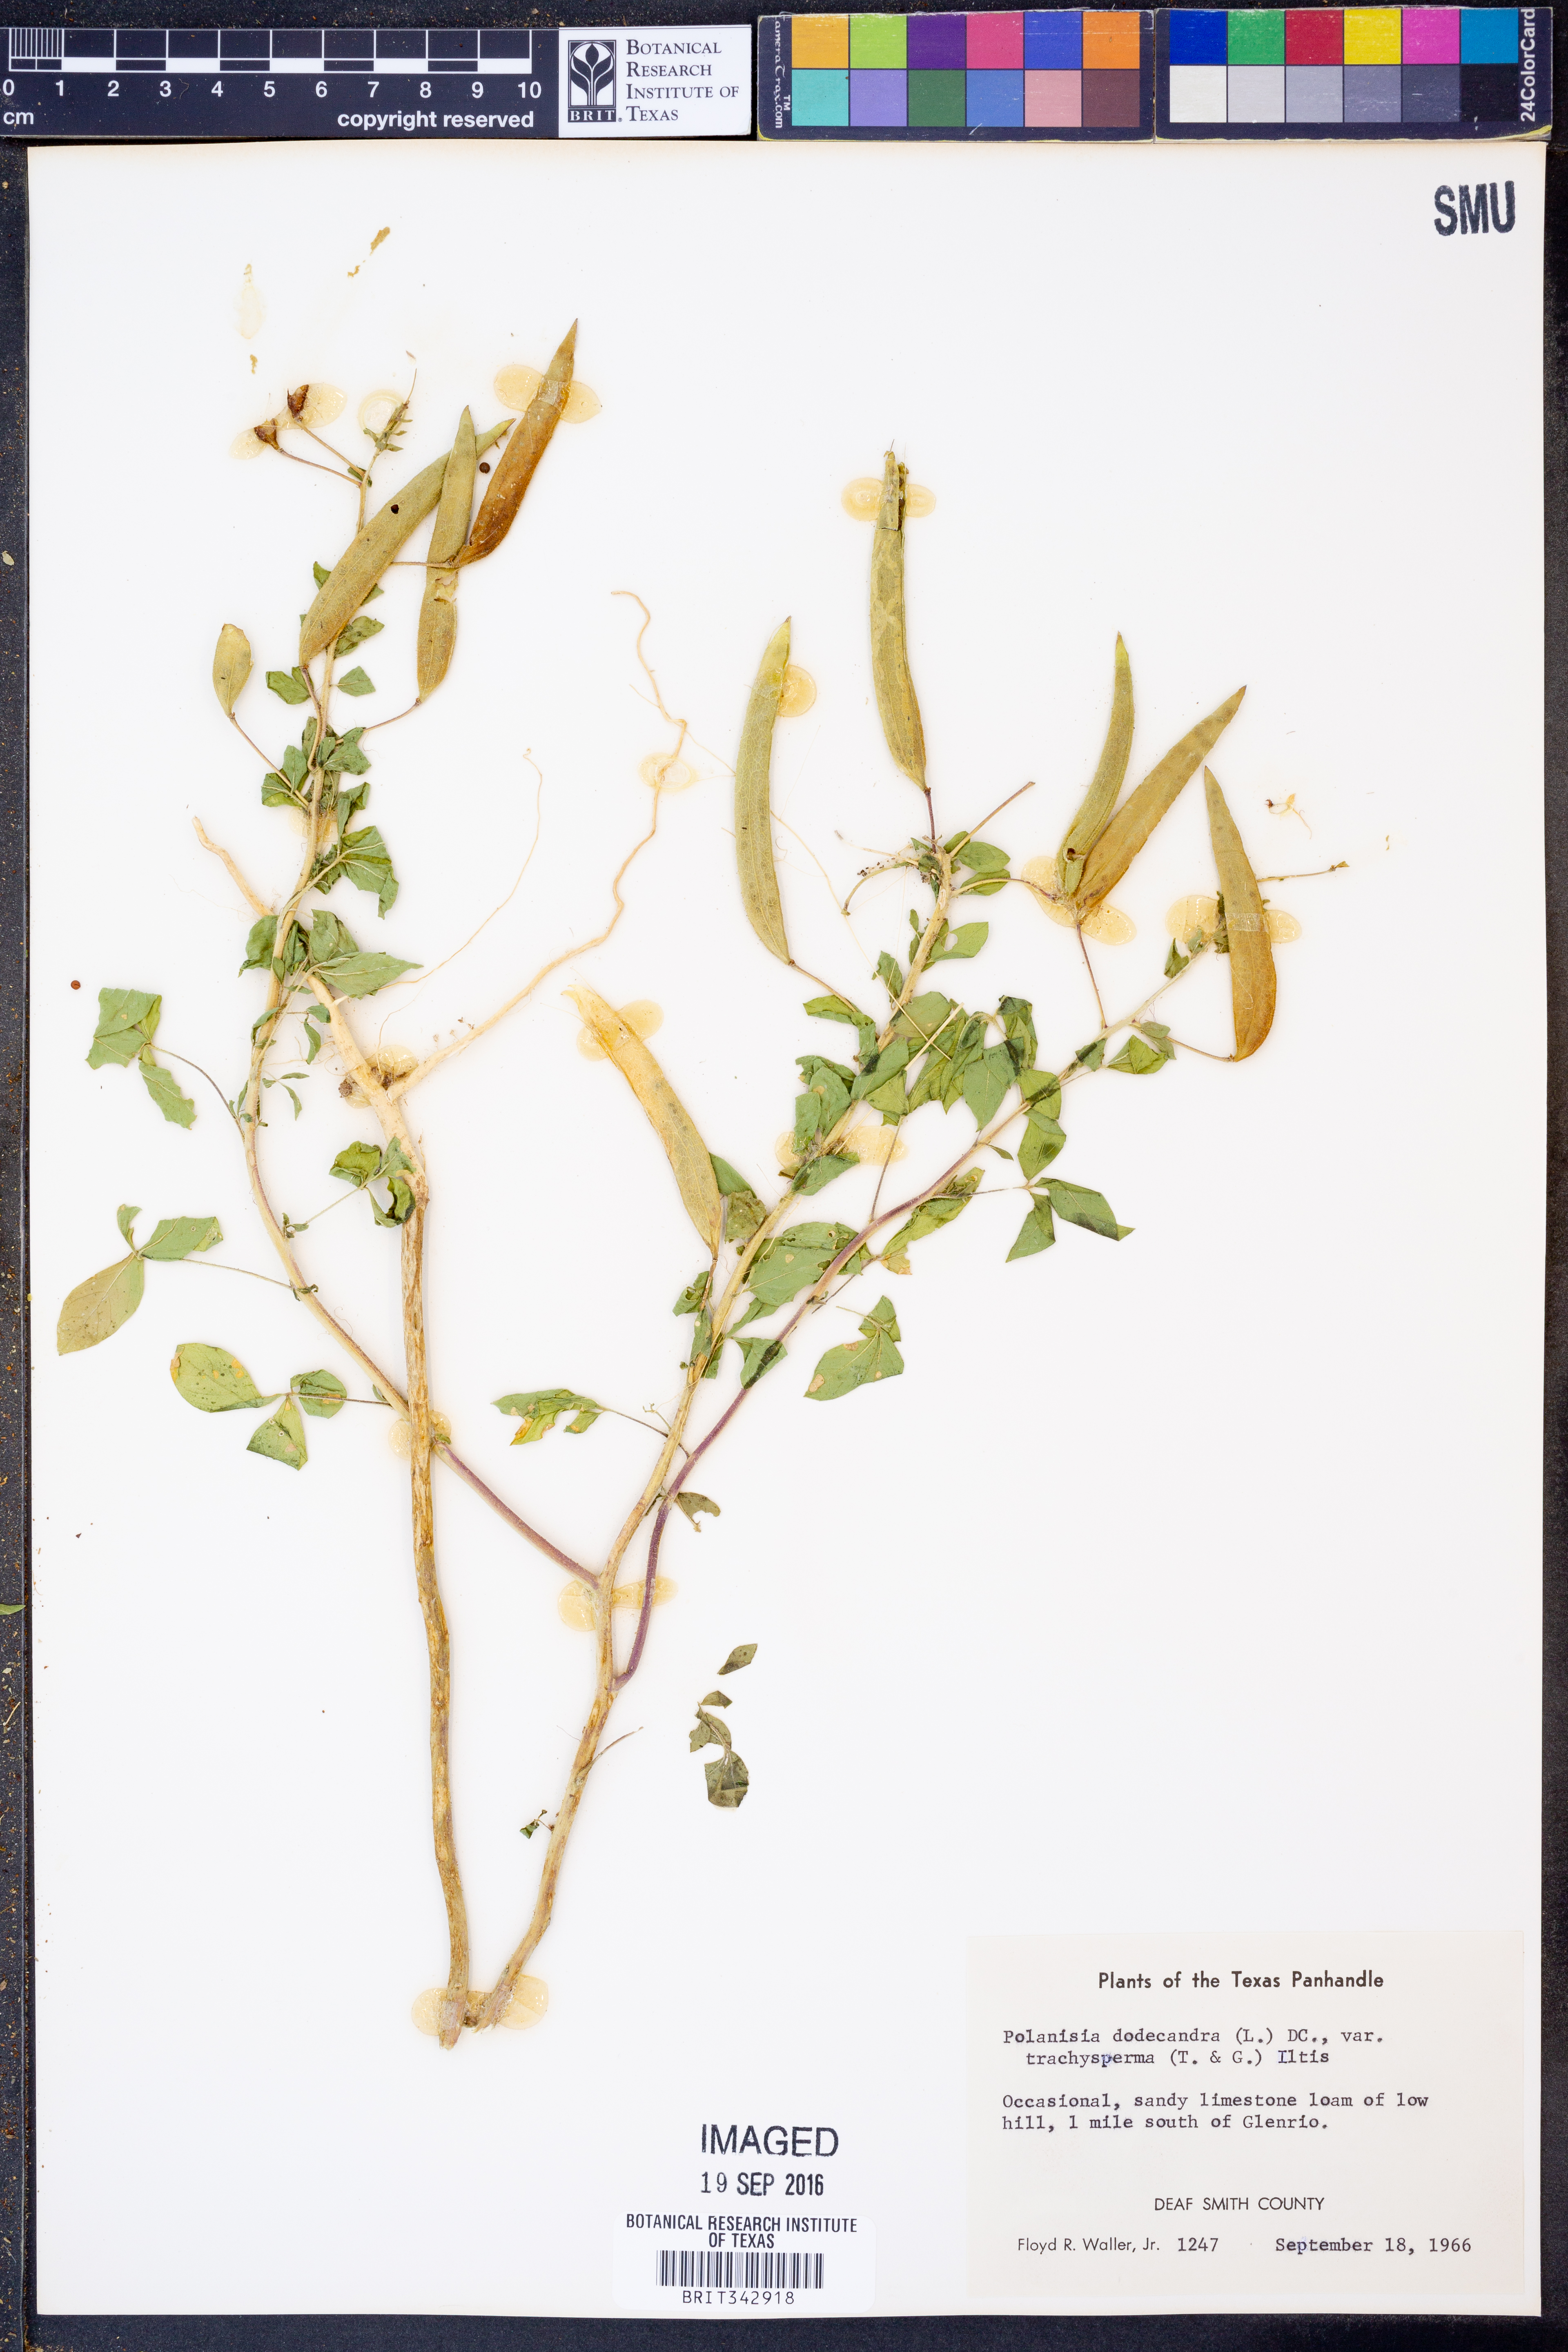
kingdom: Plantae
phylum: Tracheophyta
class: Magnoliopsida
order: Brassicales
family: Cleomaceae
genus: Polanisia
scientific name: Polanisia trachysperma
